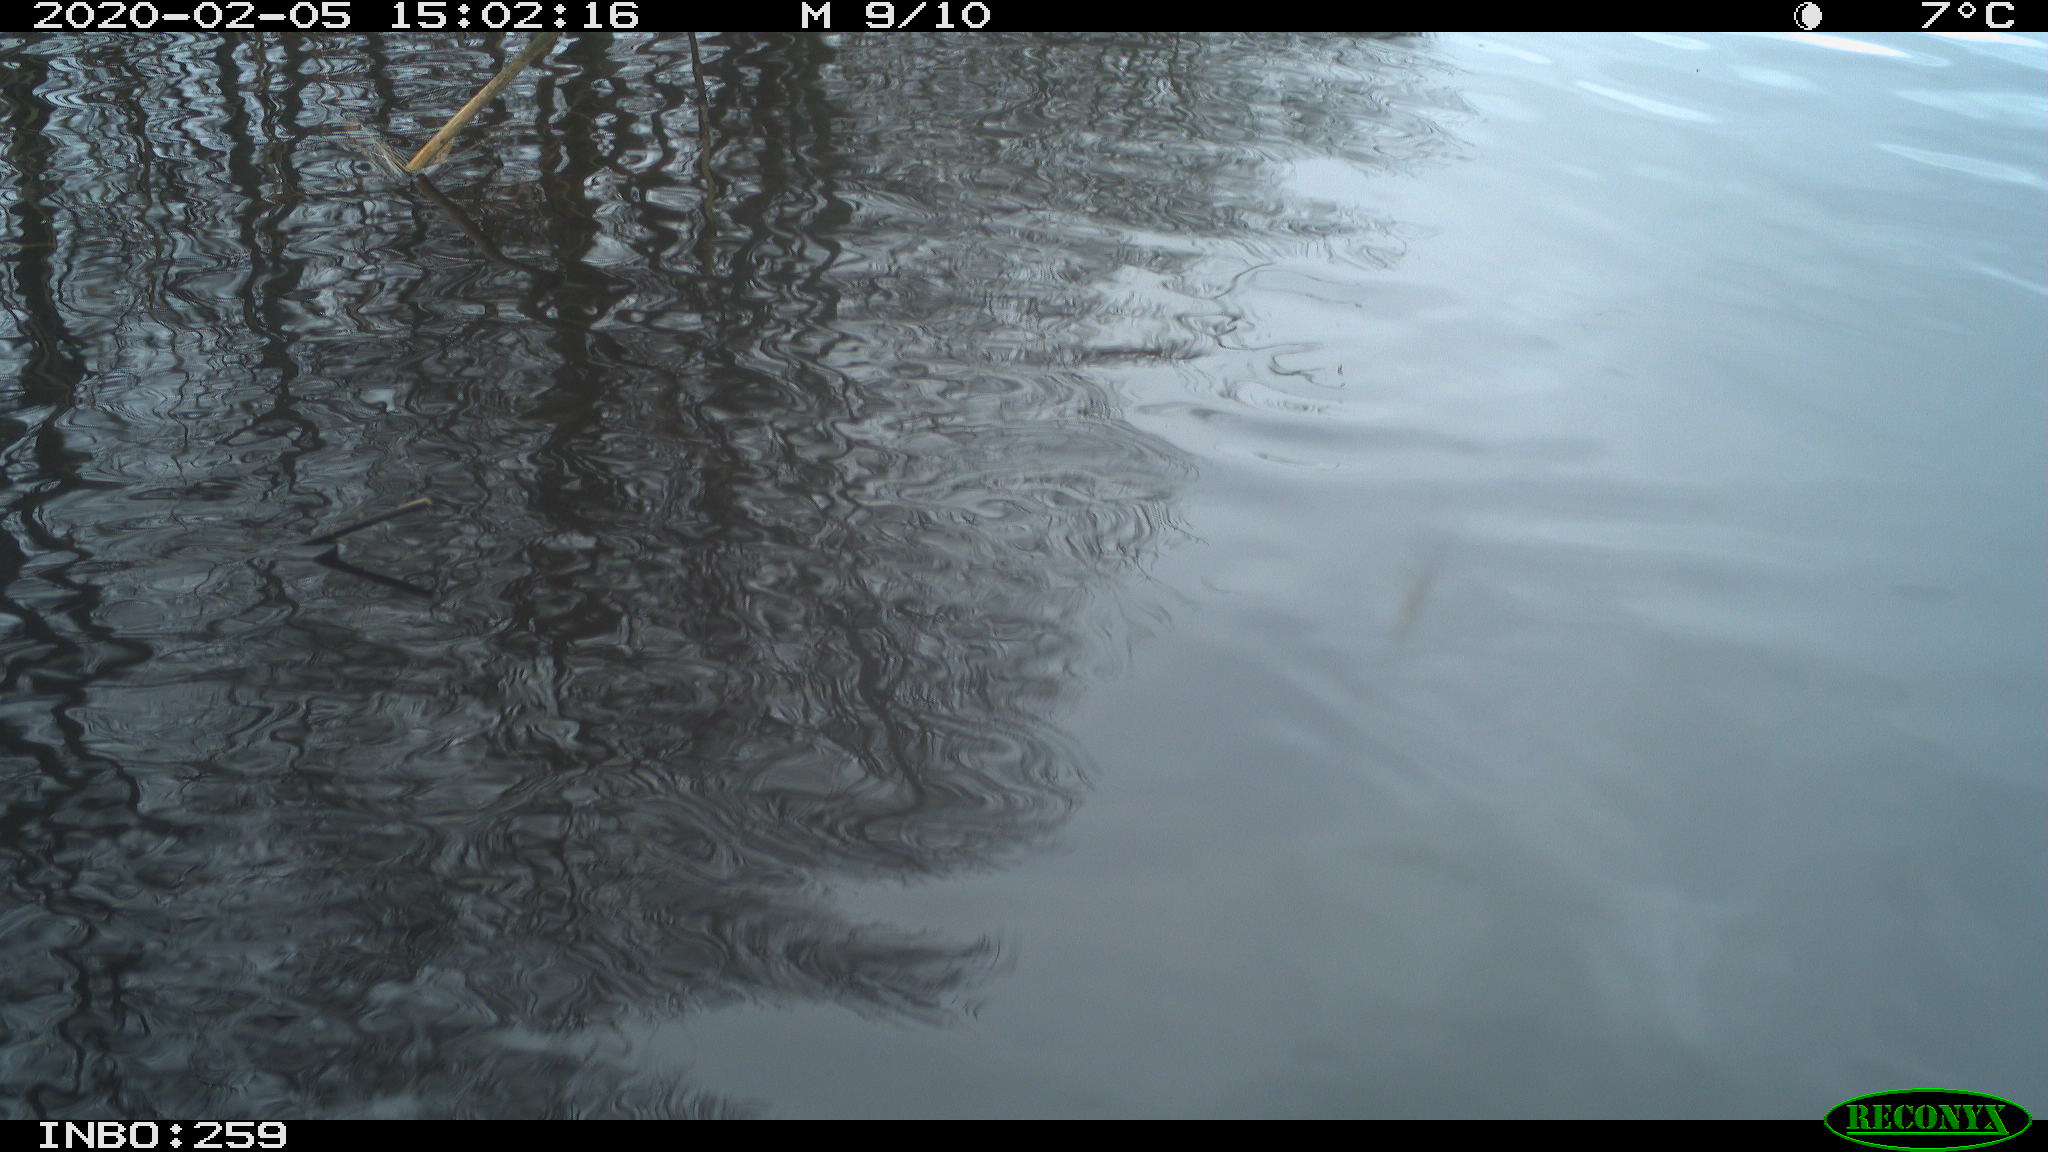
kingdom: Animalia
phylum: Chordata
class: Aves
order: Gruiformes
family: Rallidae
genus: Gallinula
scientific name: Gallinula chloropus
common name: Common moorhen
